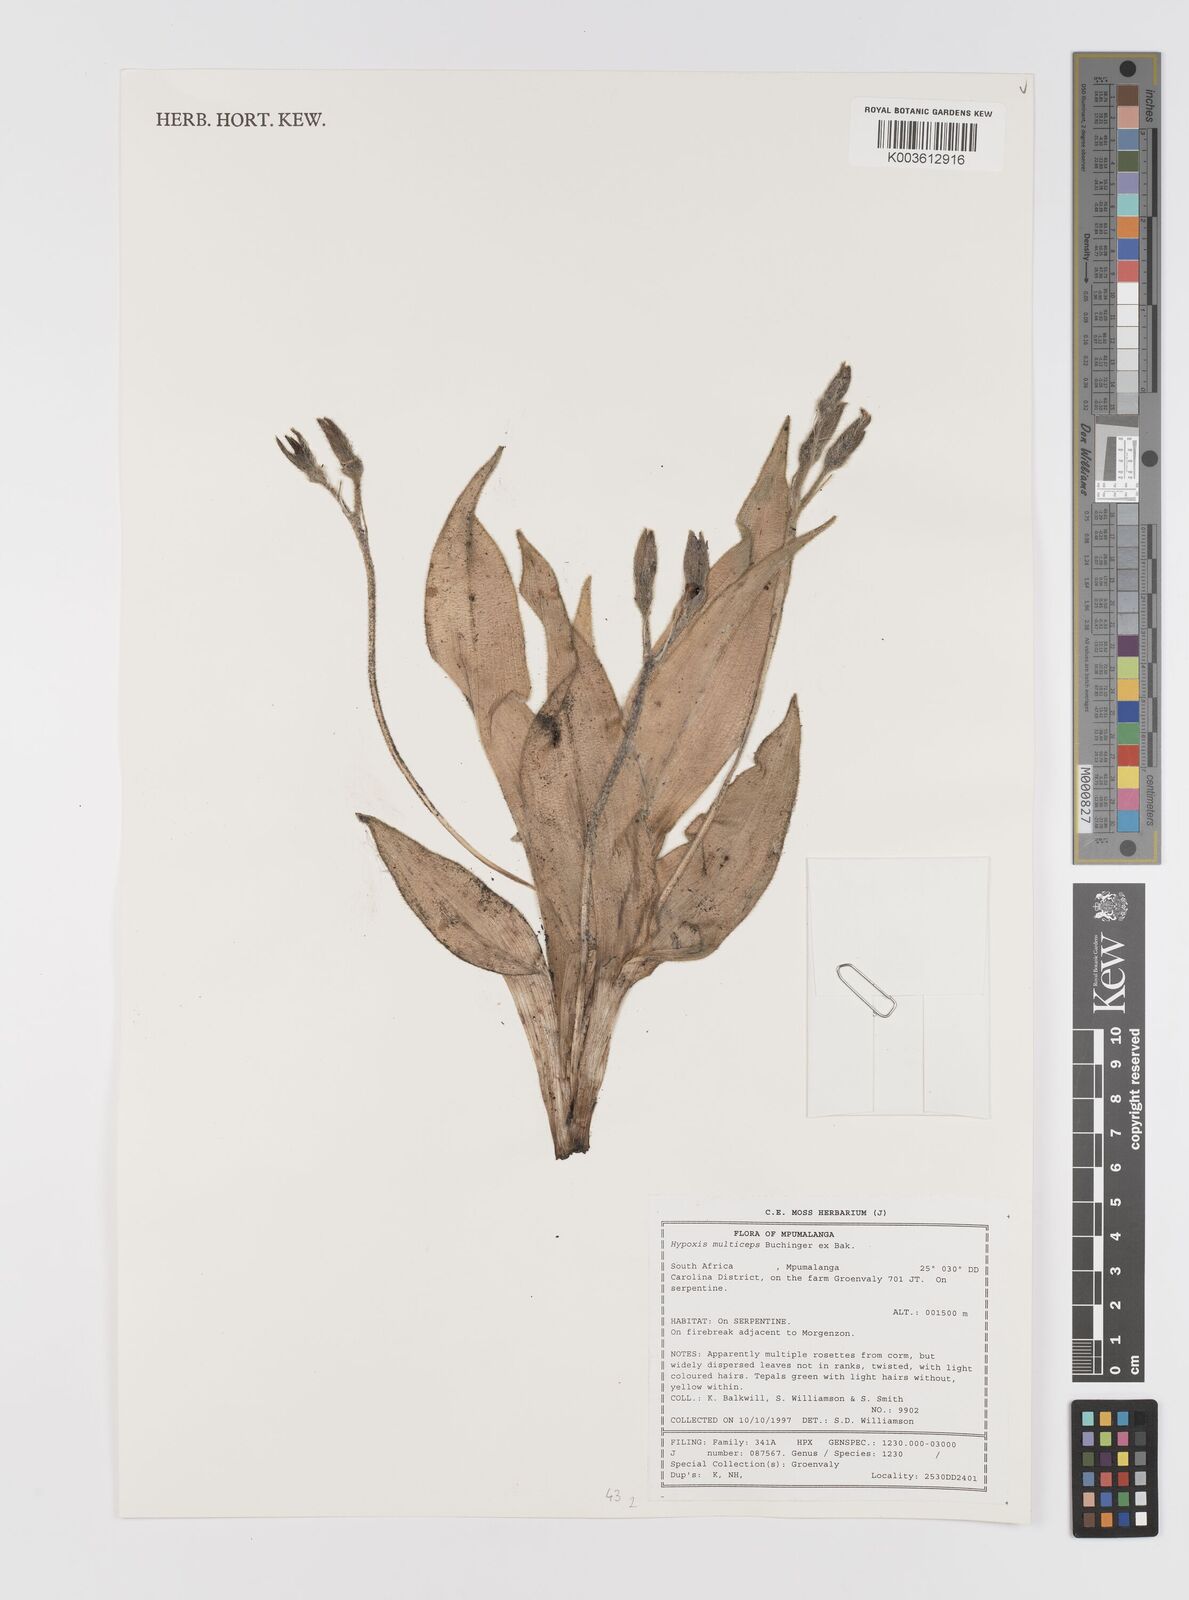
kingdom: Plantae
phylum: Tracheophyta
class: Liliopsida
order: Asparagales
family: Hypoxidaceae
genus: Hypoxis
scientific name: Hypoxis multiceps
